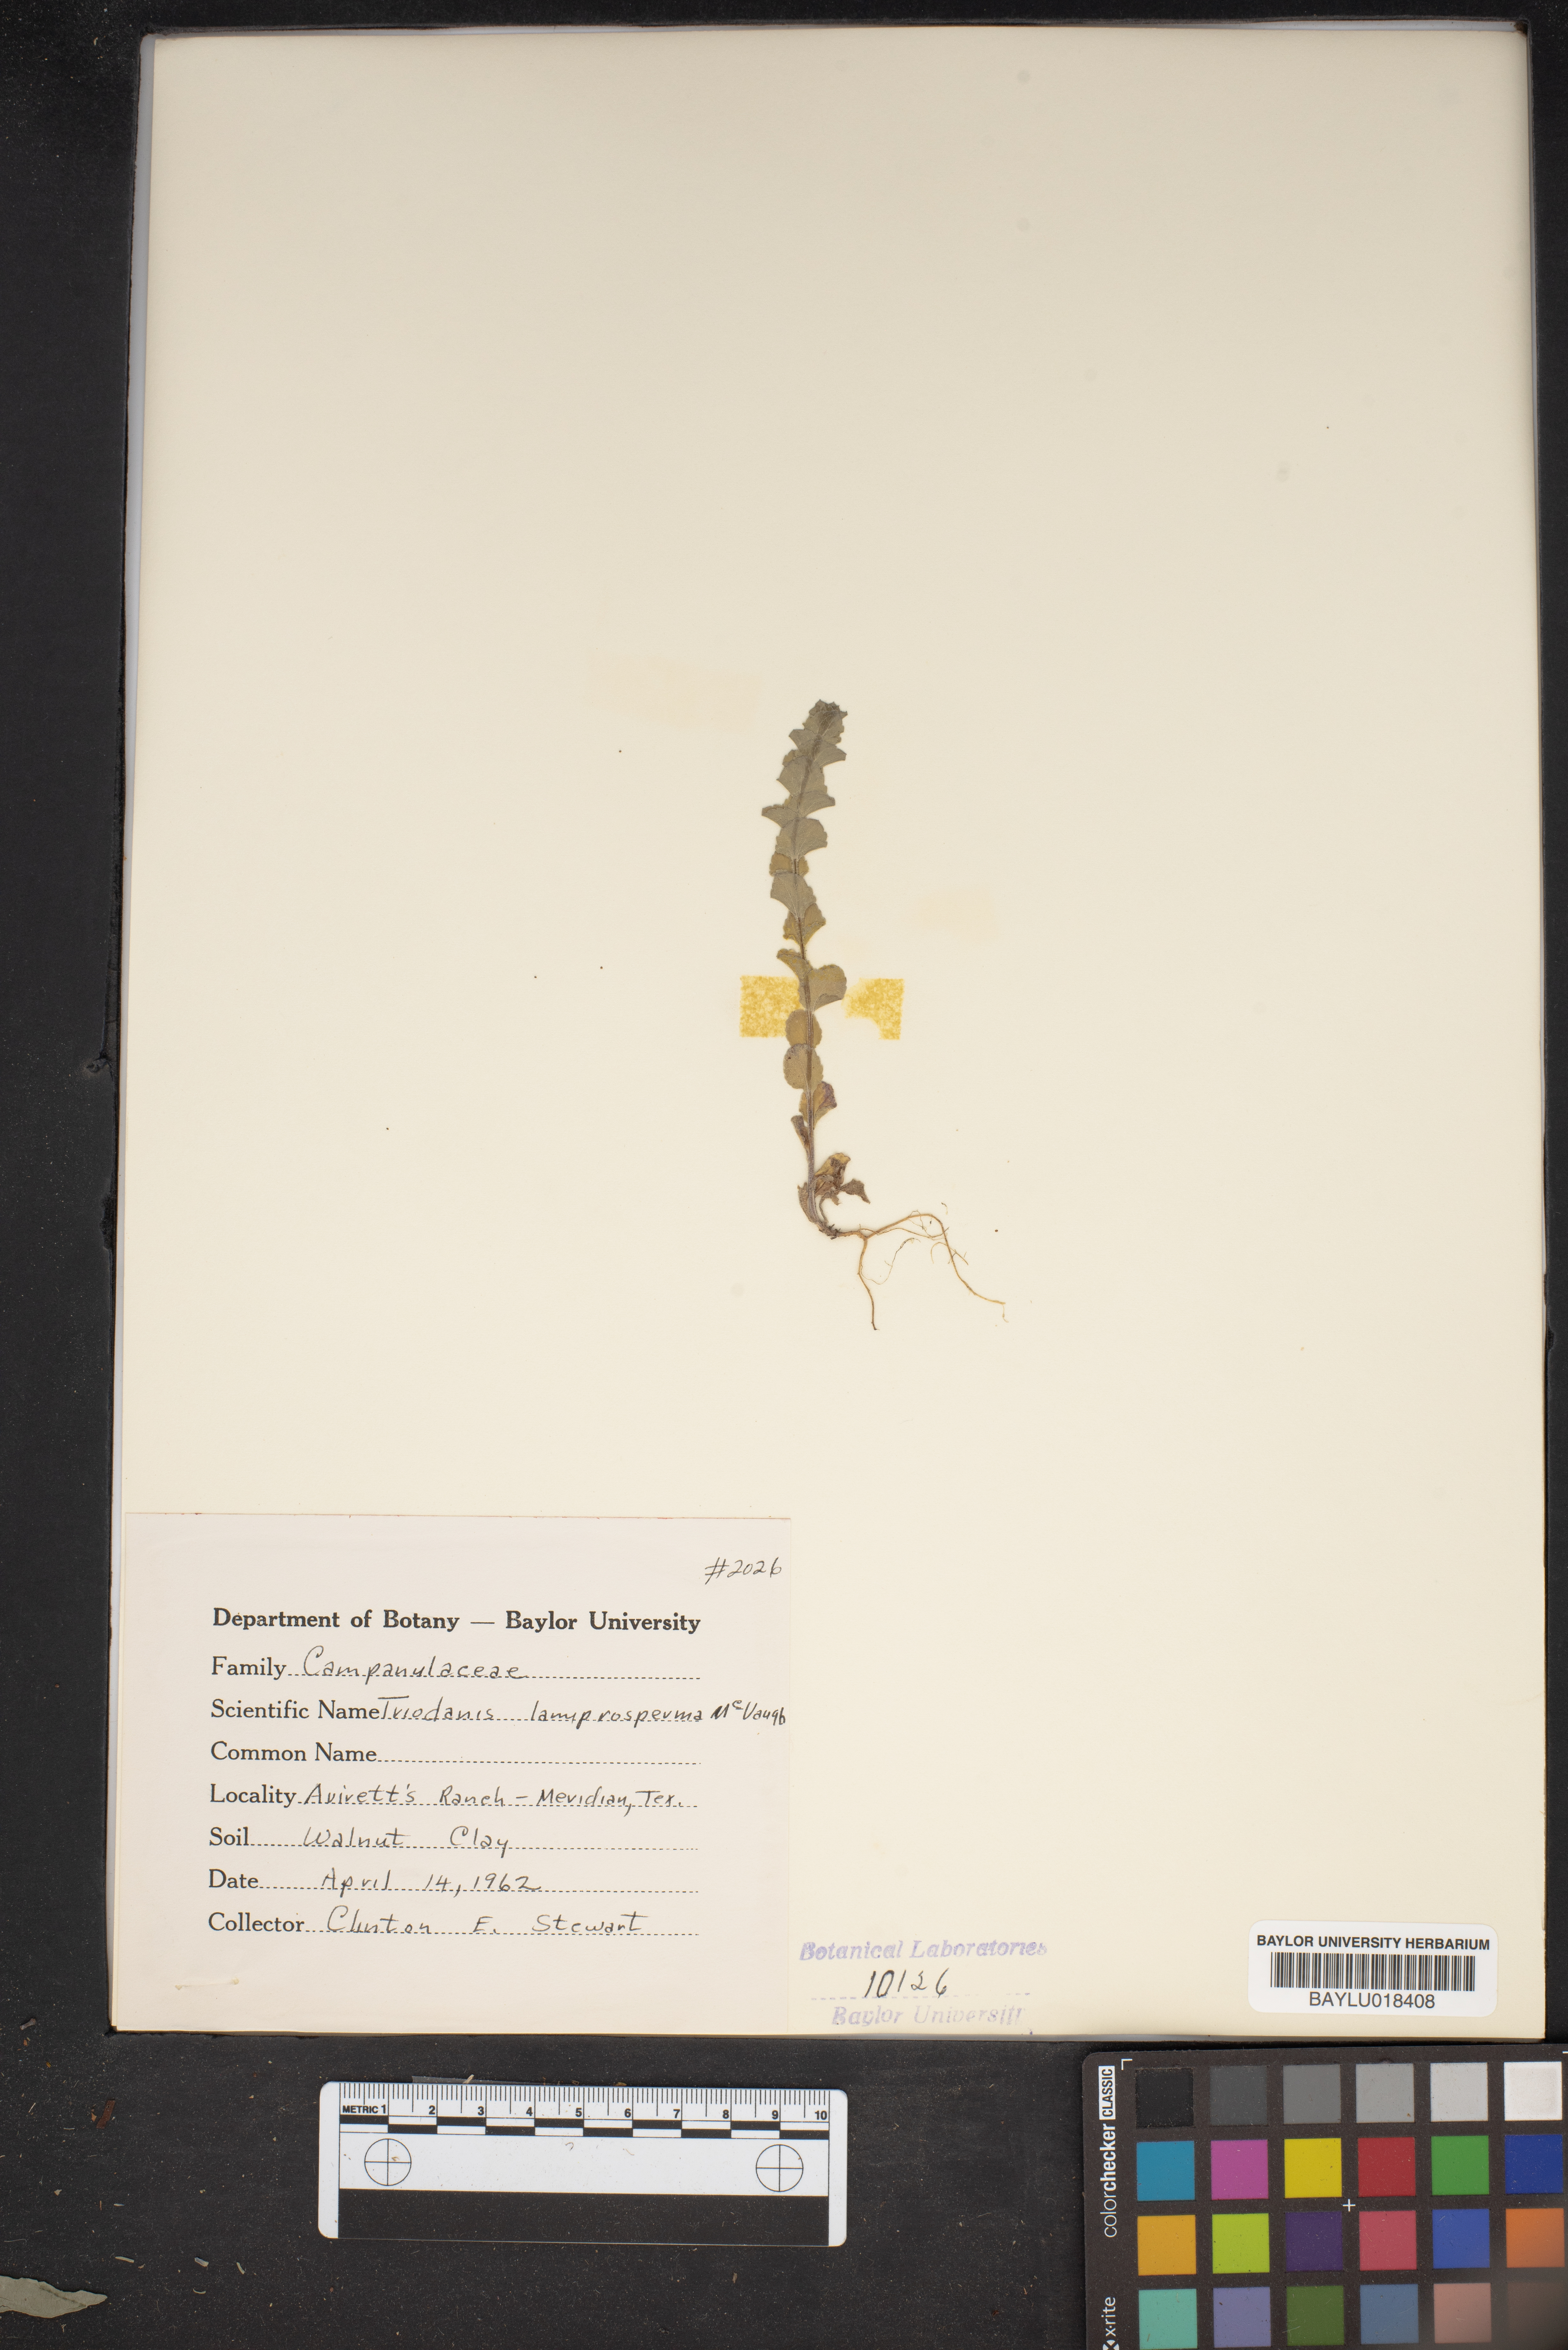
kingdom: Plantae
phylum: Tracheophyta
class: Magnoliopsida
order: Asterales
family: Campanulaceae
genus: Triodanis
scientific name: Triodanis lamprosperma
